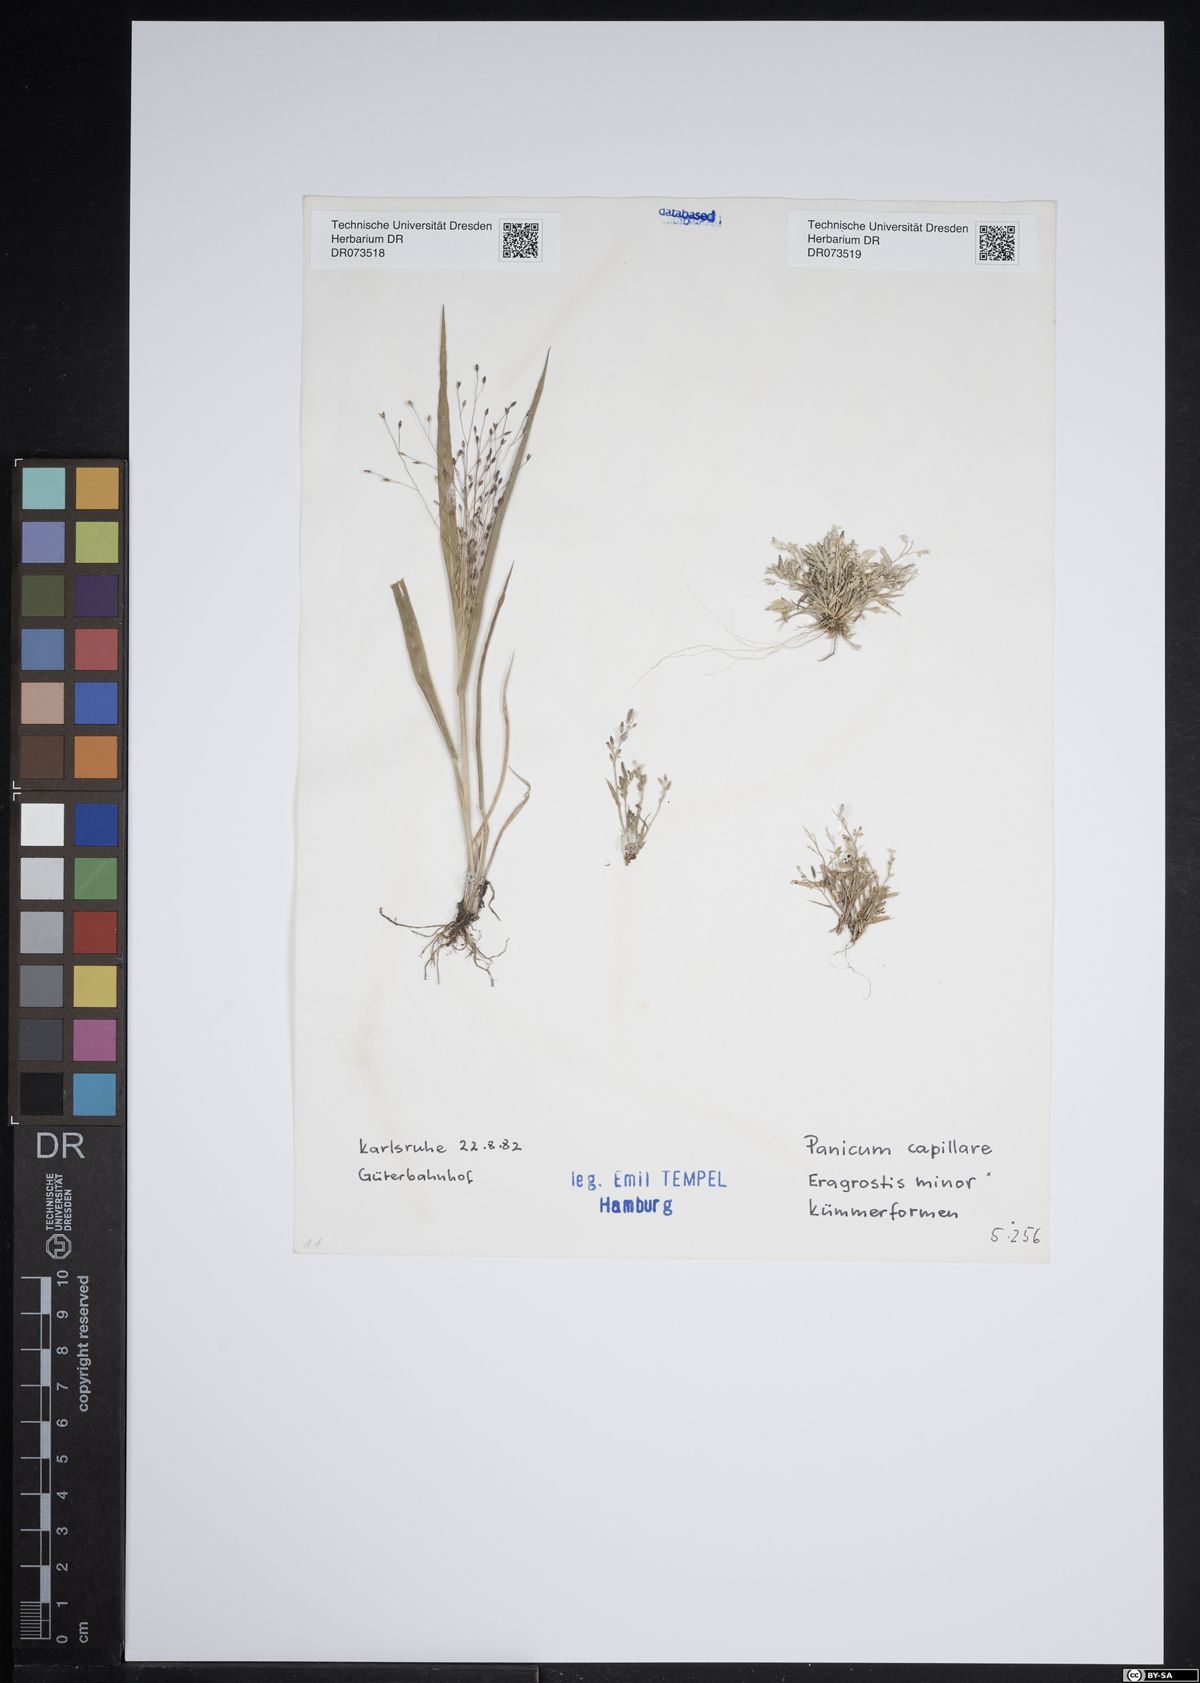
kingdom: Plantae
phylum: Tracheophyta
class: Liliopsida
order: Poales
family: Poaceae
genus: Panicum
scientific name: Panicum capillare
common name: Witch-grass
